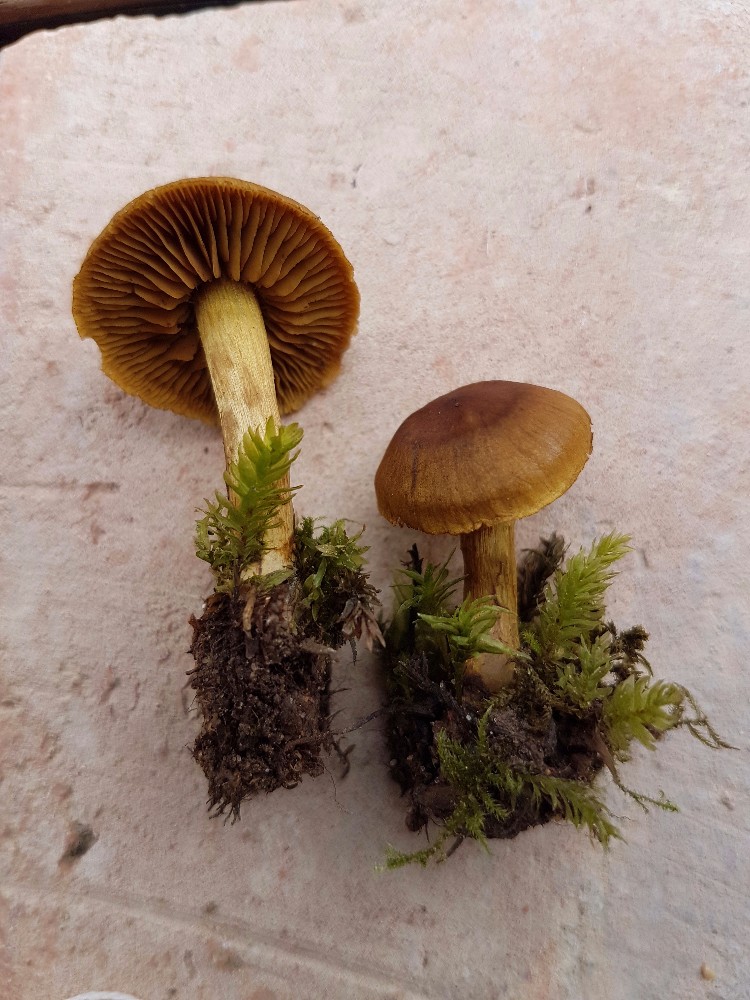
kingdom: Fungi
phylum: Basidiomycota
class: Agaricomycetes
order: Agaricales
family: Cortinariaceae
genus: Cortinarius
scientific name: Cortinarius olivaceofuscus
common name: olivenbrun slørhat
